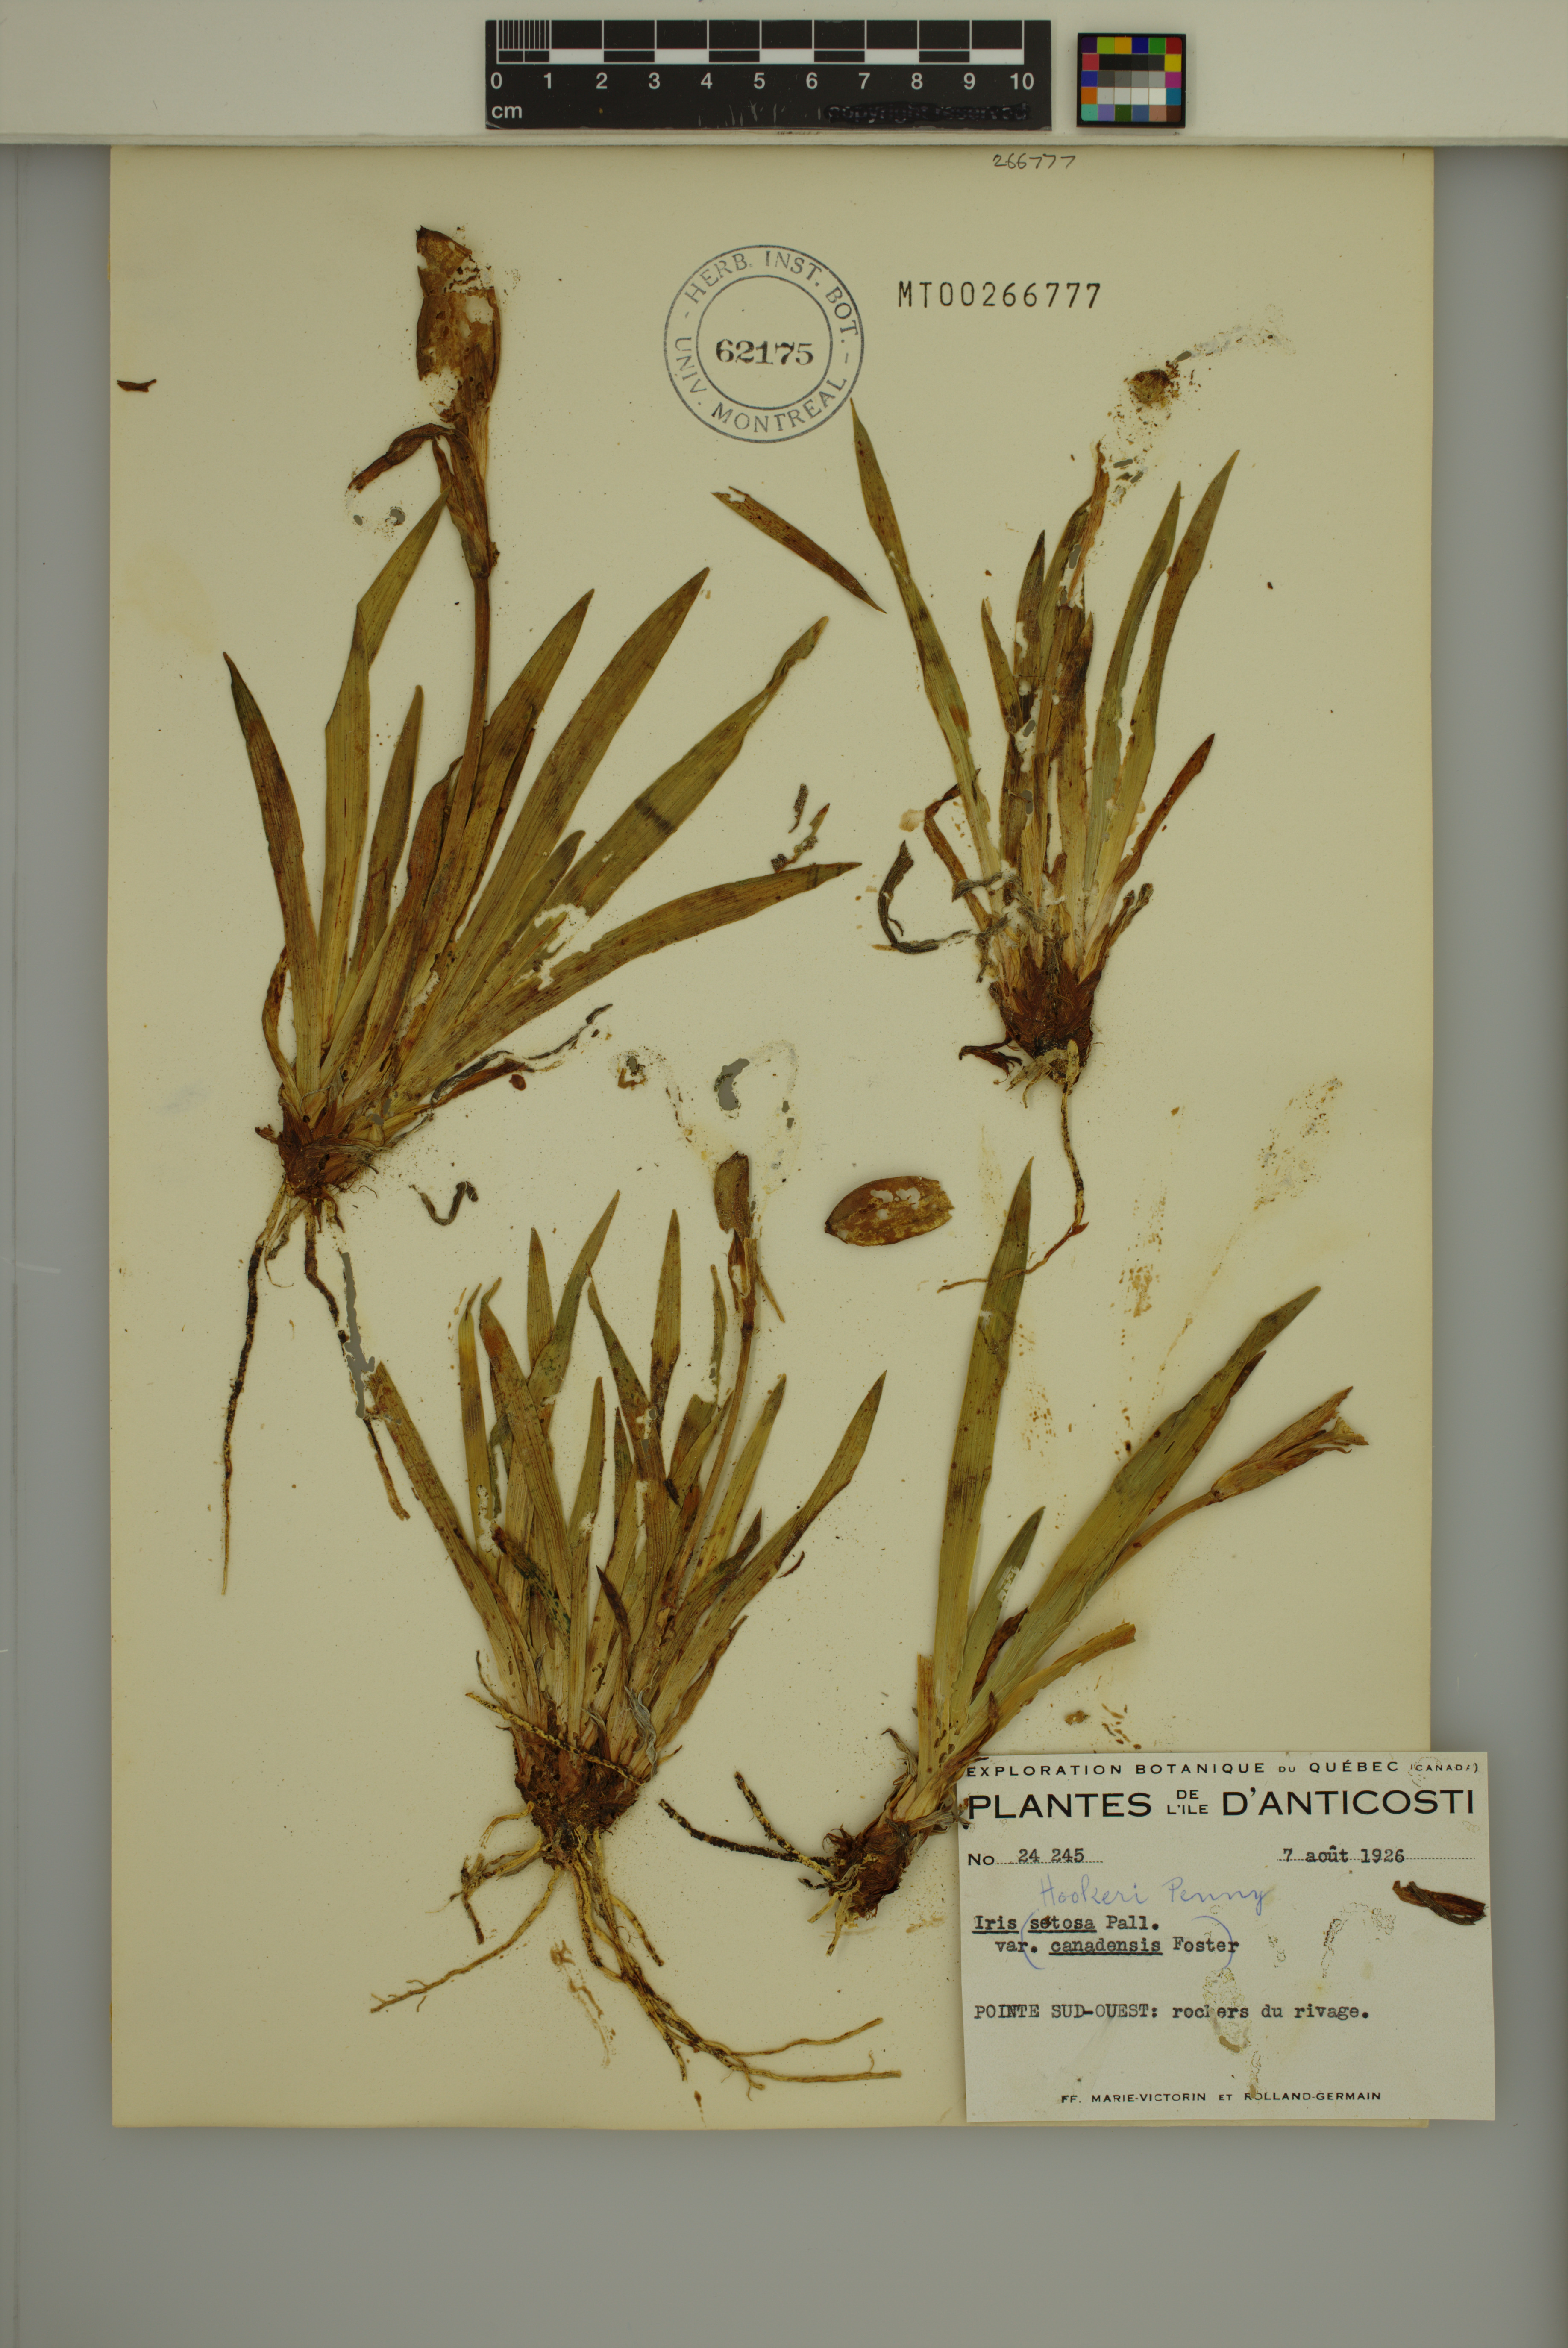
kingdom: Plantae
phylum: Tracheophyta
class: Liliopsida
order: Asparagales
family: Iridaceae
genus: Iris
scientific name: Iris hookeri
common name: Canada beach-head iris
